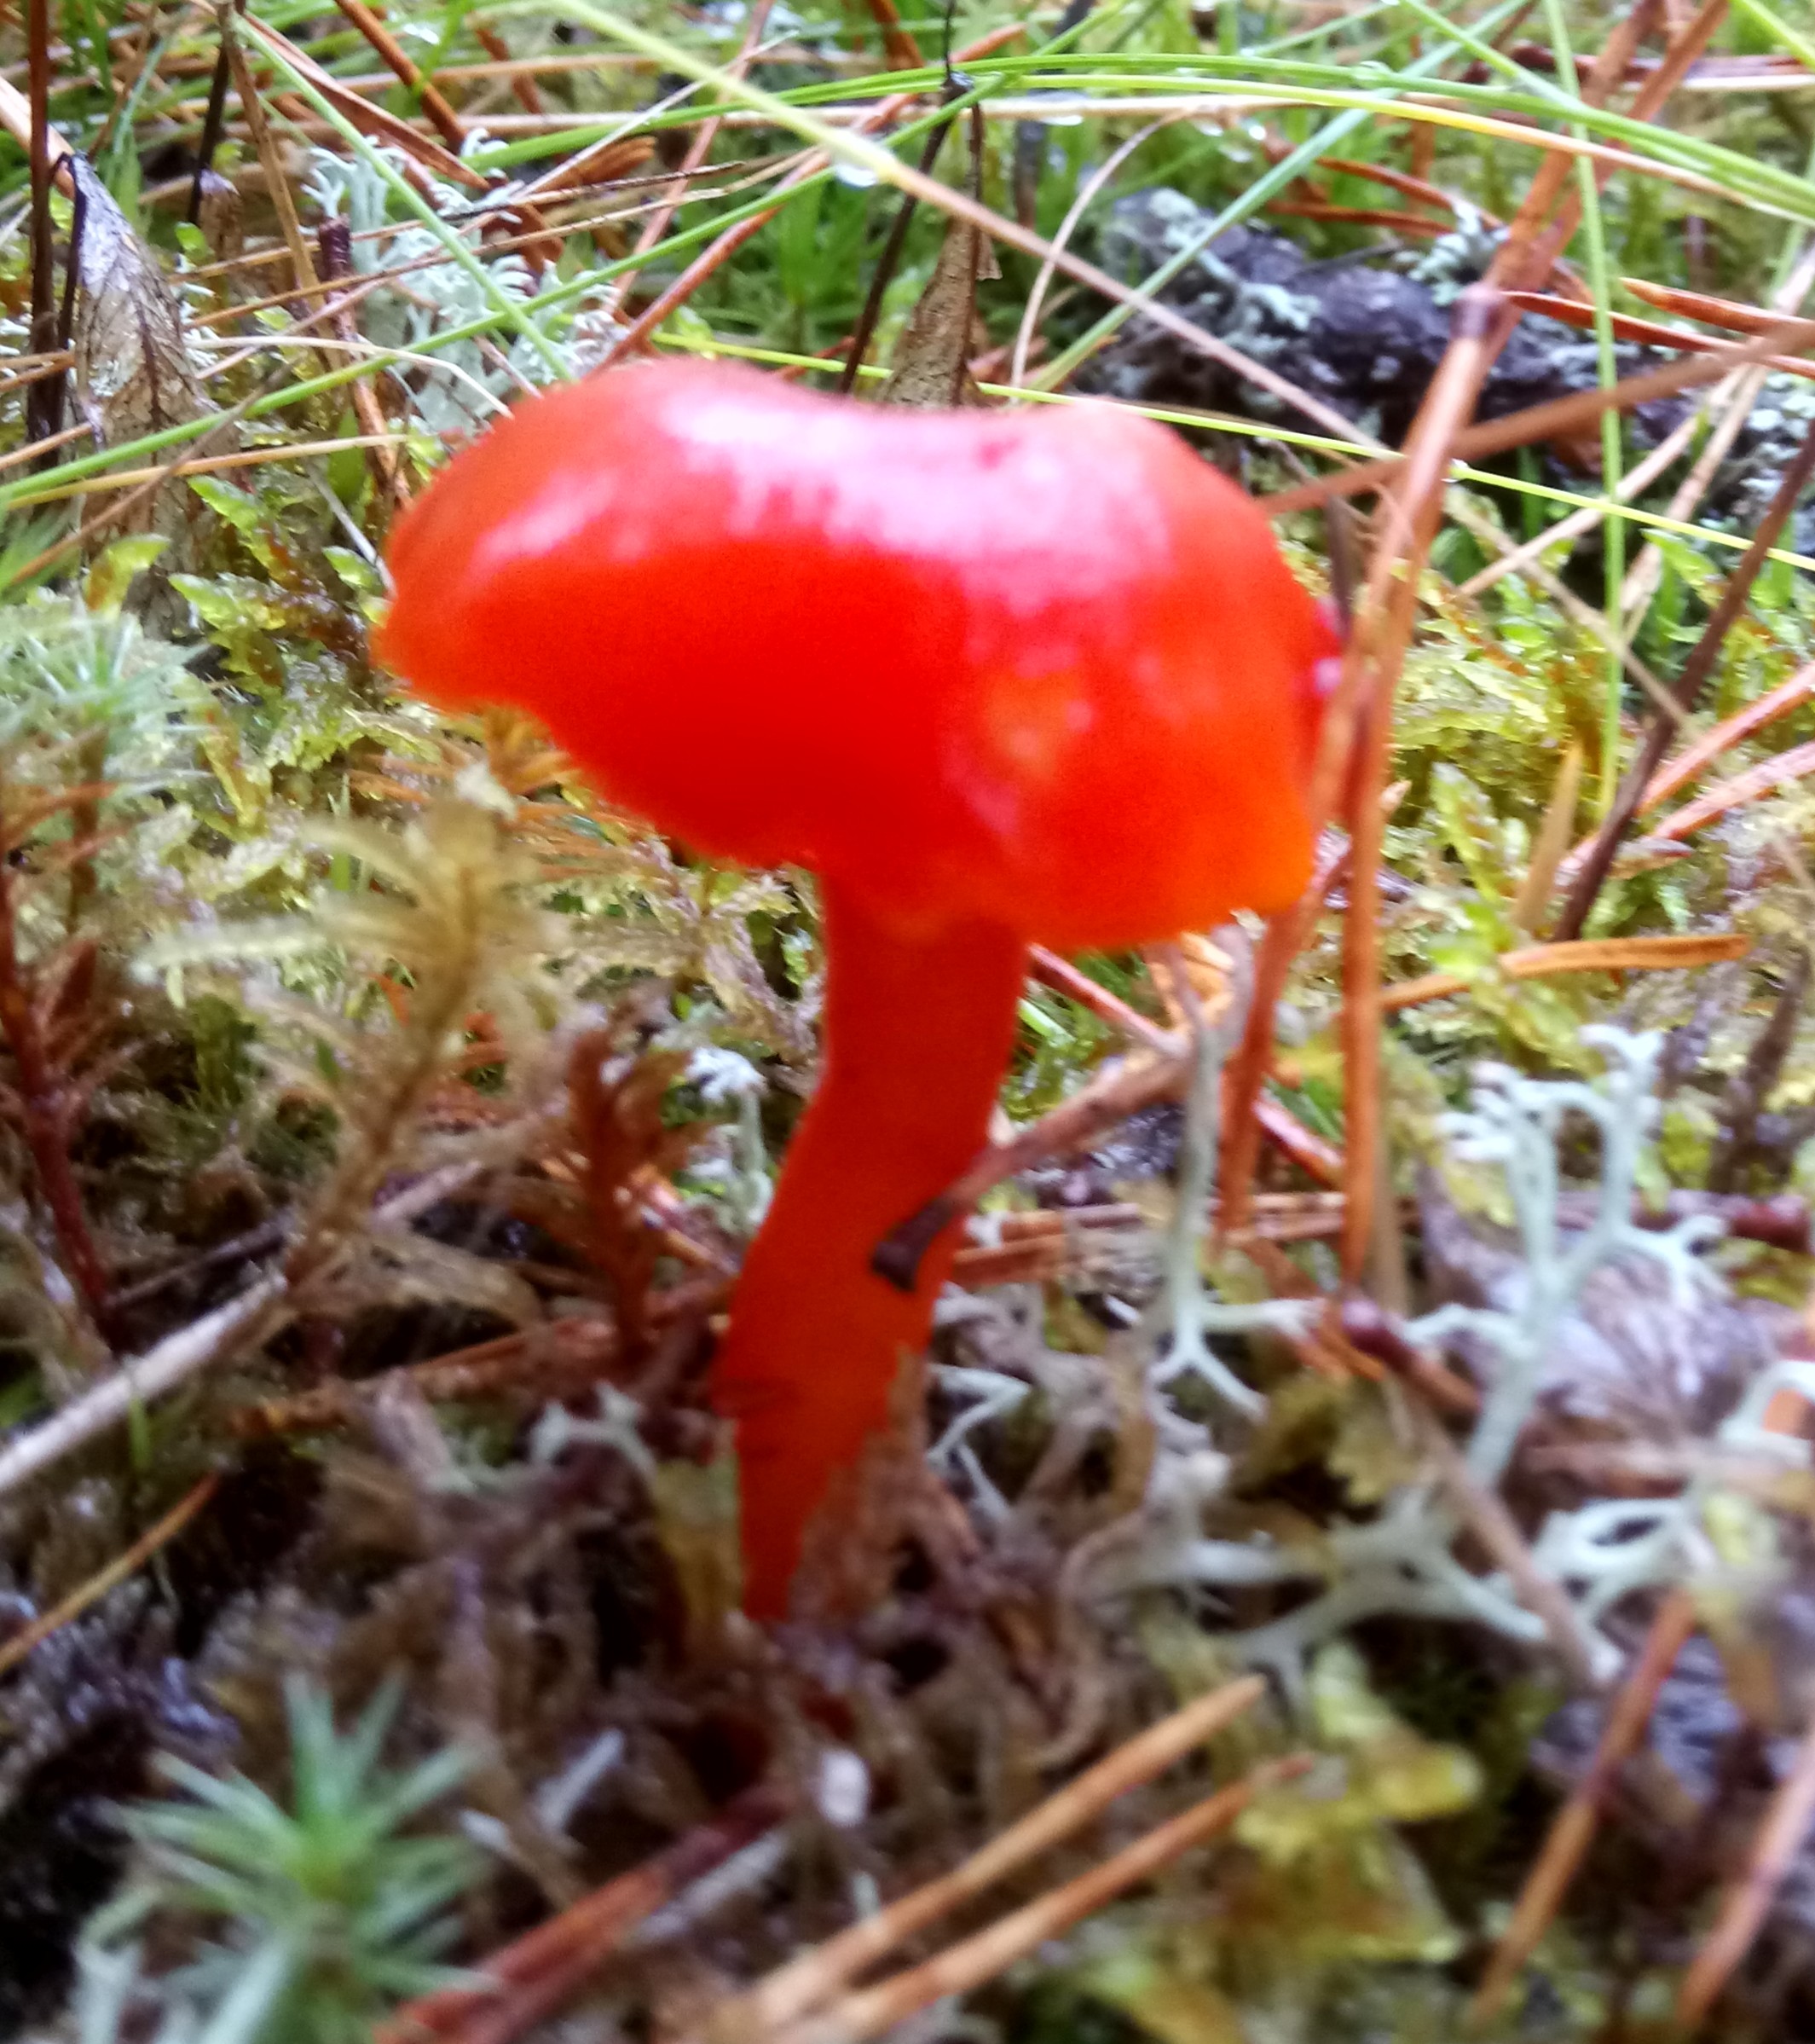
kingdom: Fungi
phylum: Basidiomycota
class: Agaricomycetes
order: Agaricales
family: Hygrophoraceae
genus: Hygrocybe
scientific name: Hygrocybe coccinea
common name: Scarlet hood
